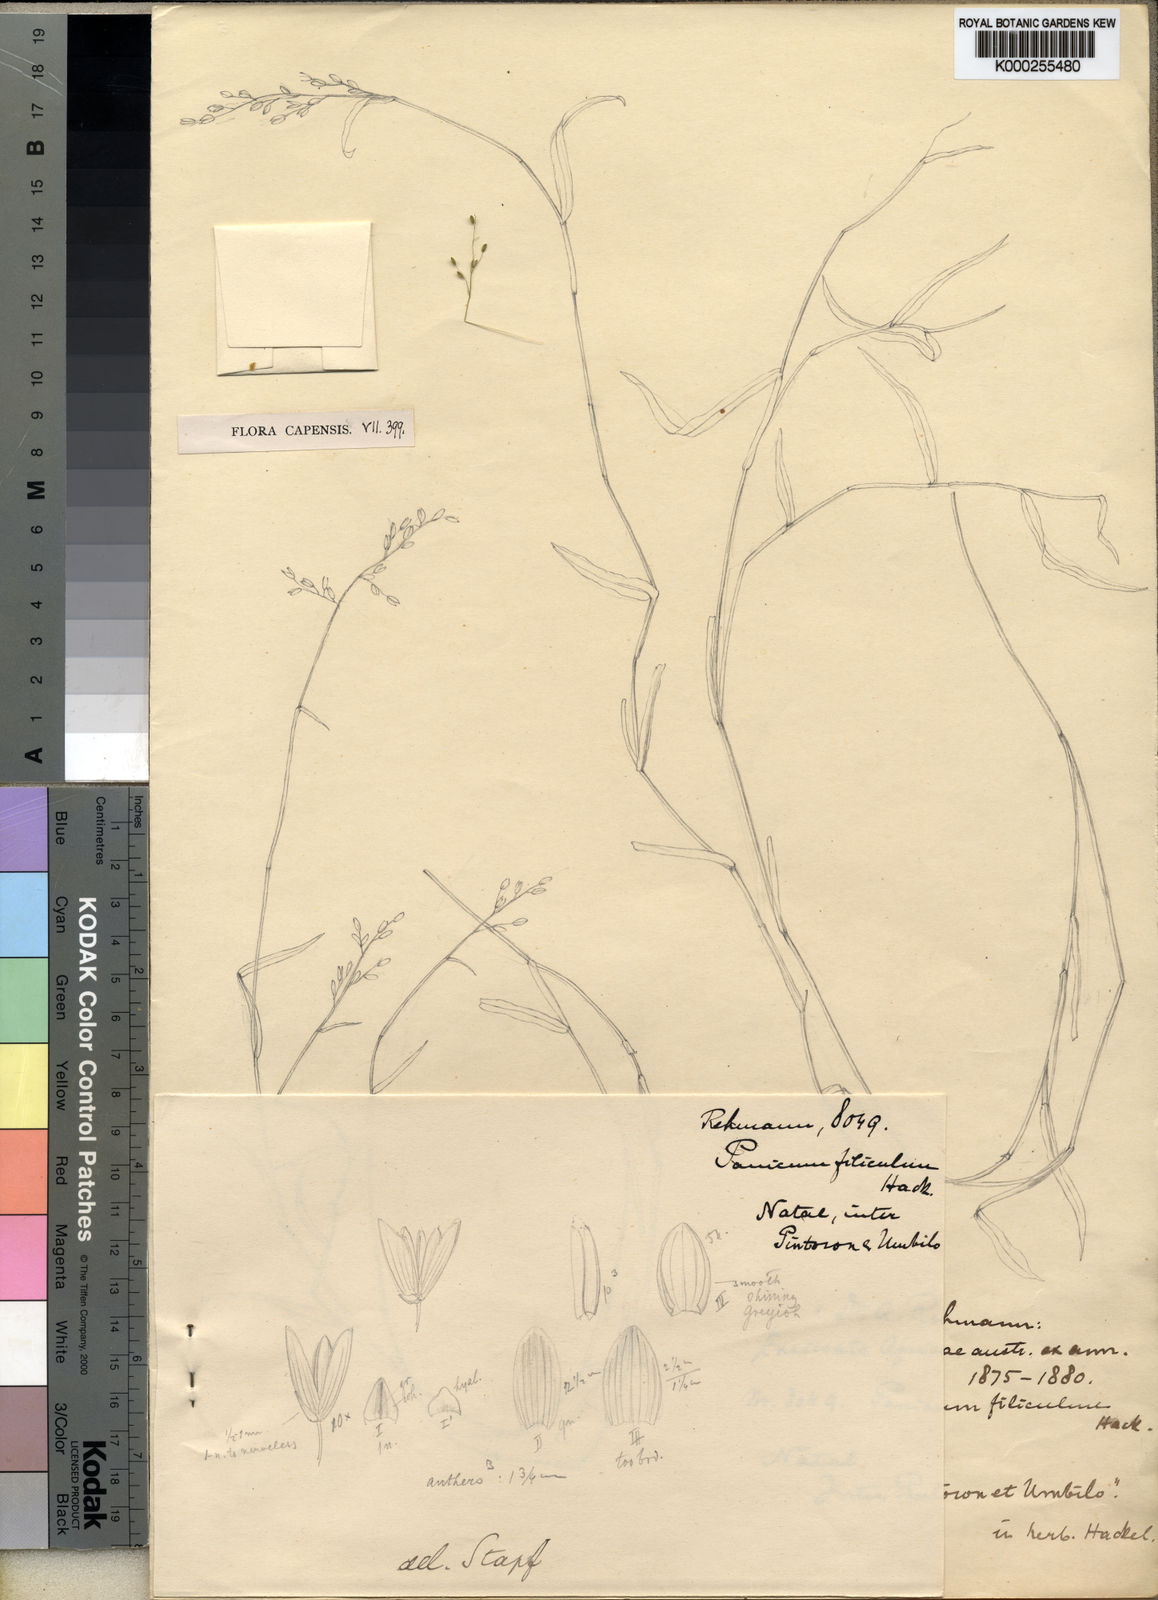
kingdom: Plantae
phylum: Tracheophyta
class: Liliopsida
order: Poales
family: Poaceae
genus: Adenochloa
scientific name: Adenochloa hymeniochila
